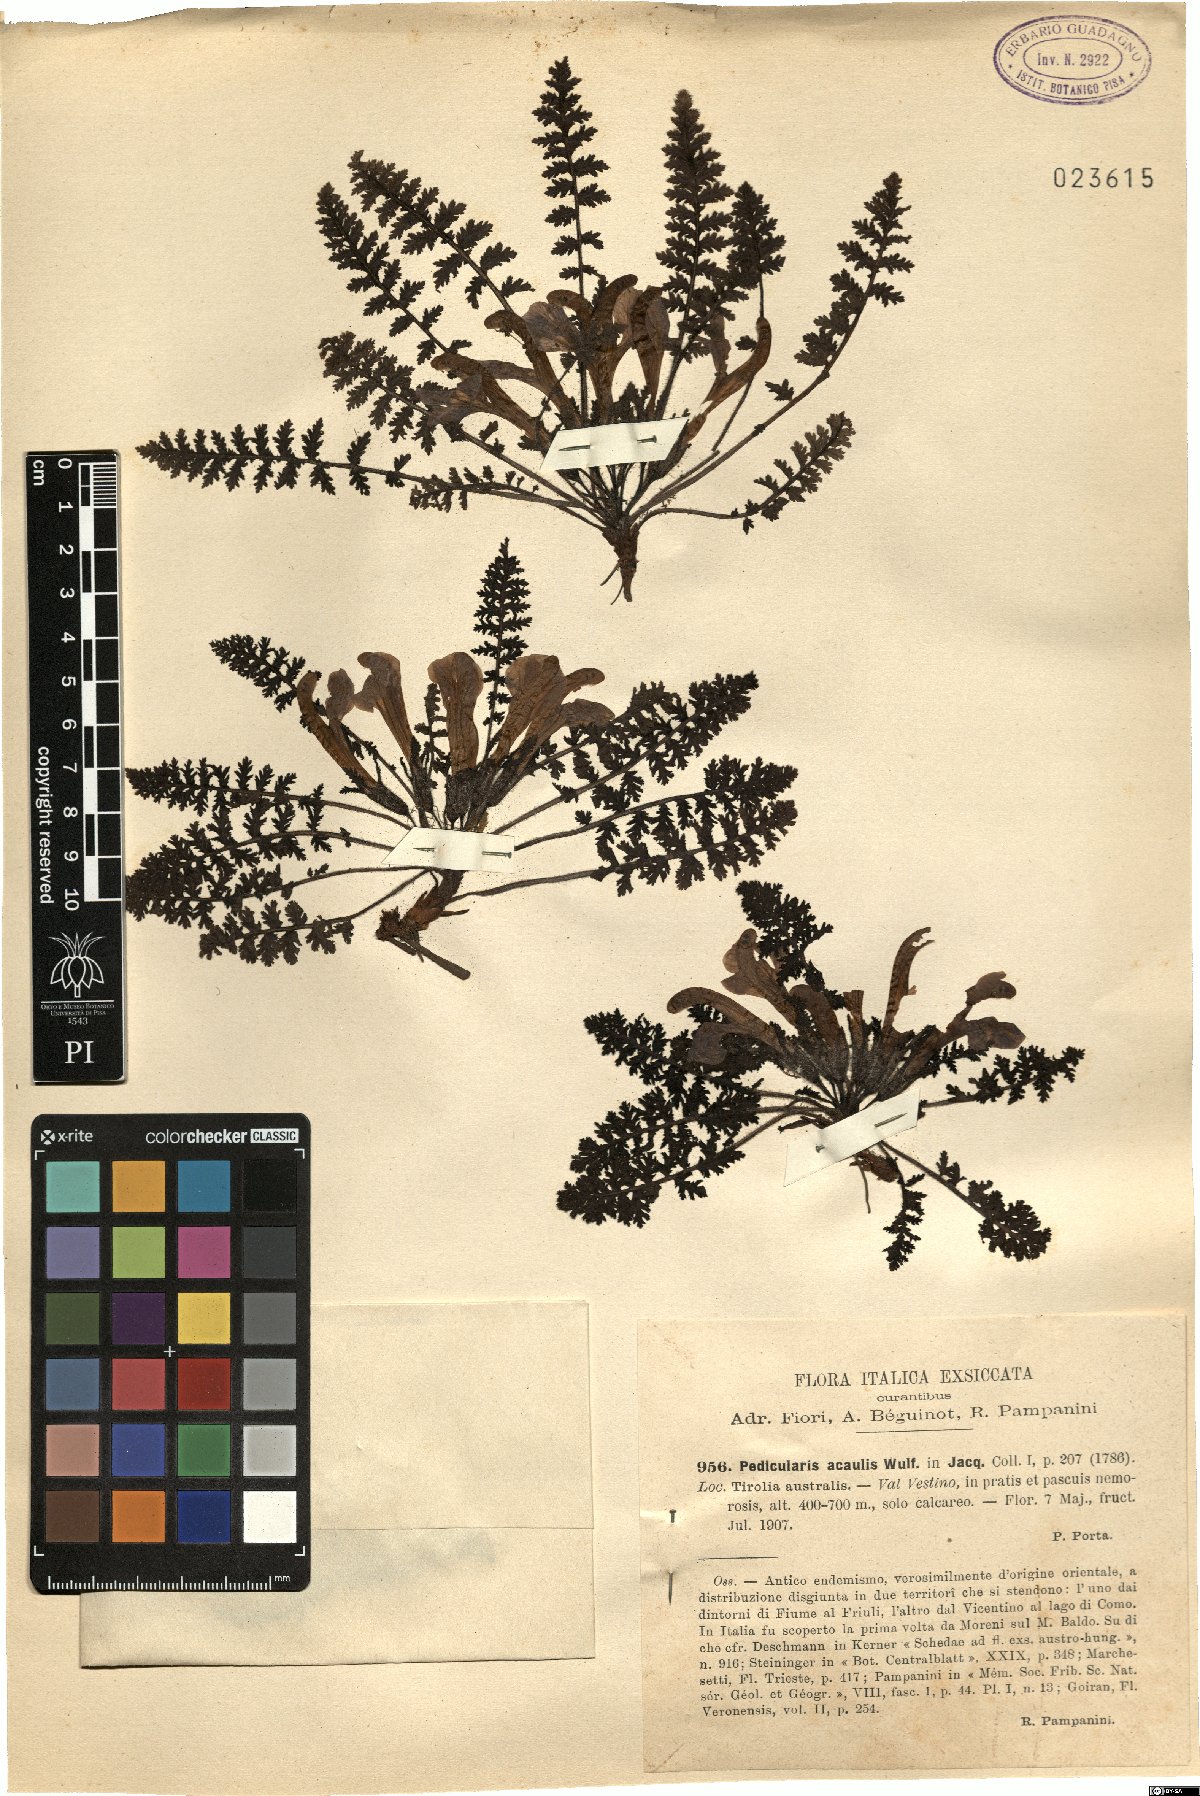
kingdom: Plantae
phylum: Tracheophyta
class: Magnoliopsida
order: Lamiales
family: Orobanchaceae
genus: Pedicularis
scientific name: Pedicularis acaulis
